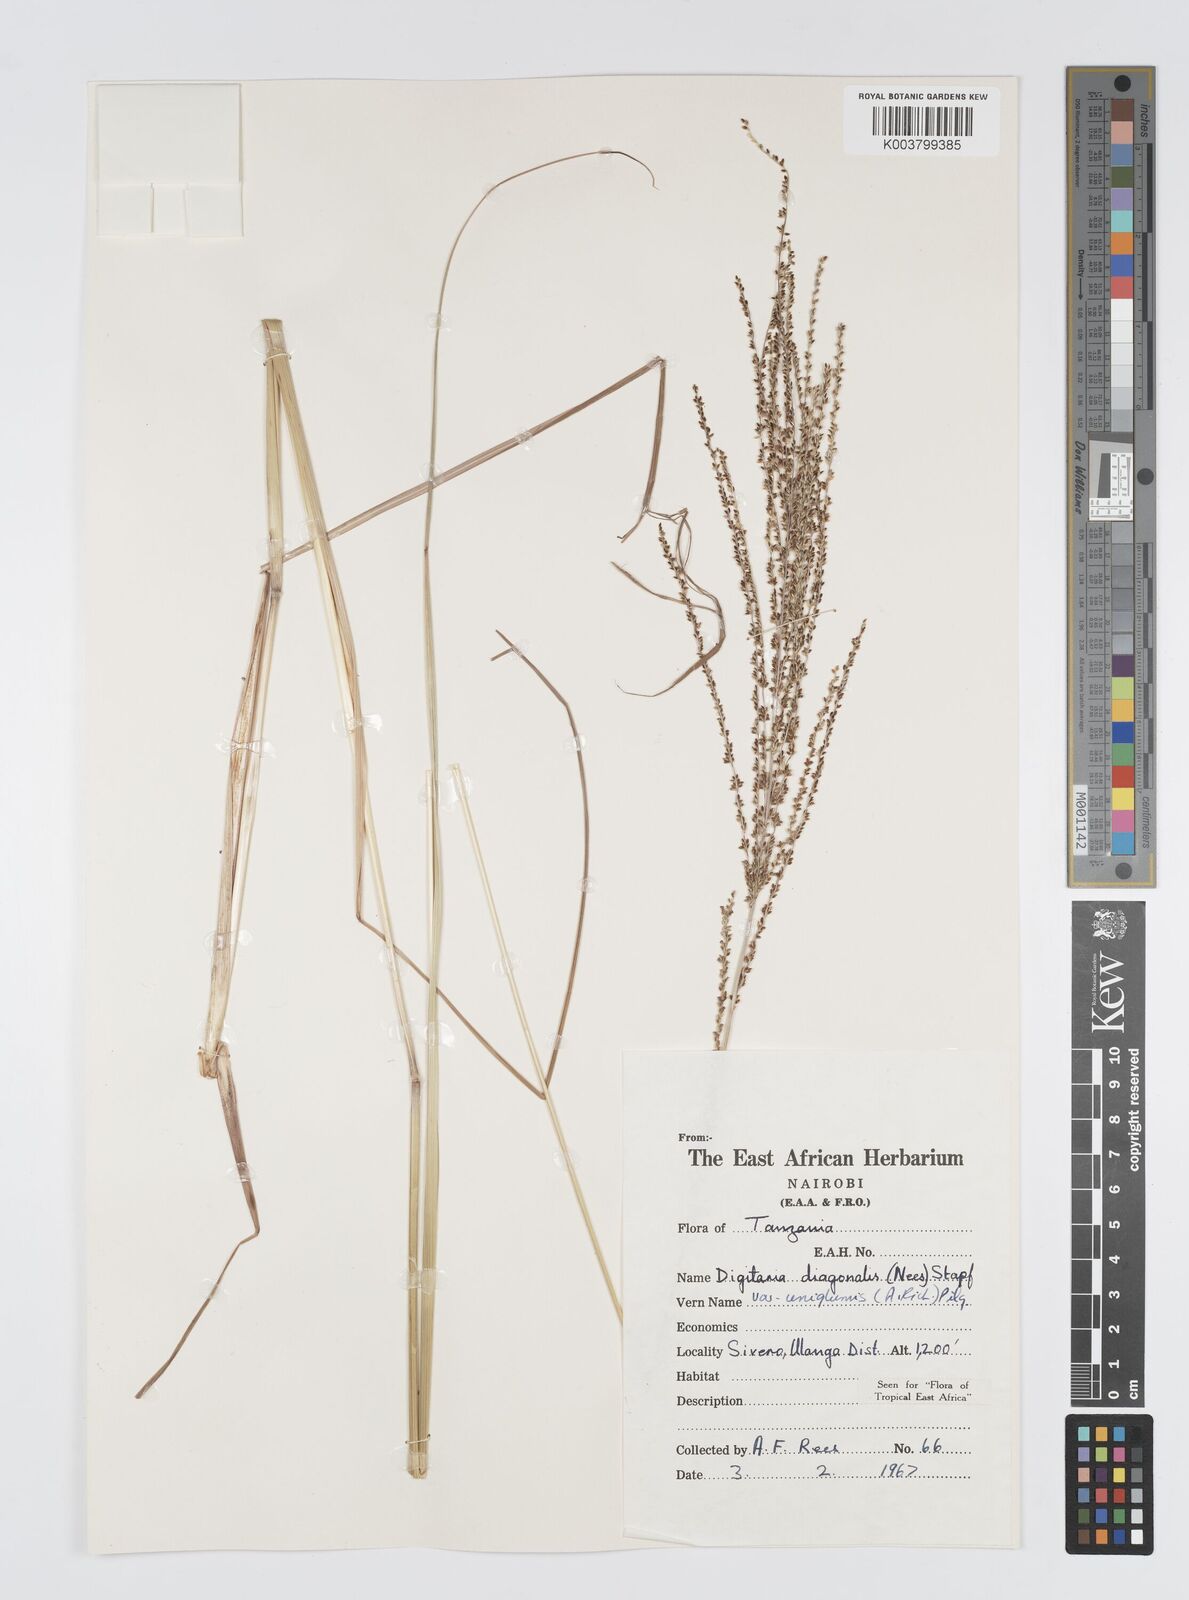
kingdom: Plantae
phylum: Tracheophyta
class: Liliopsida
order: Poales
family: Poaceae
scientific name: Poaceae
